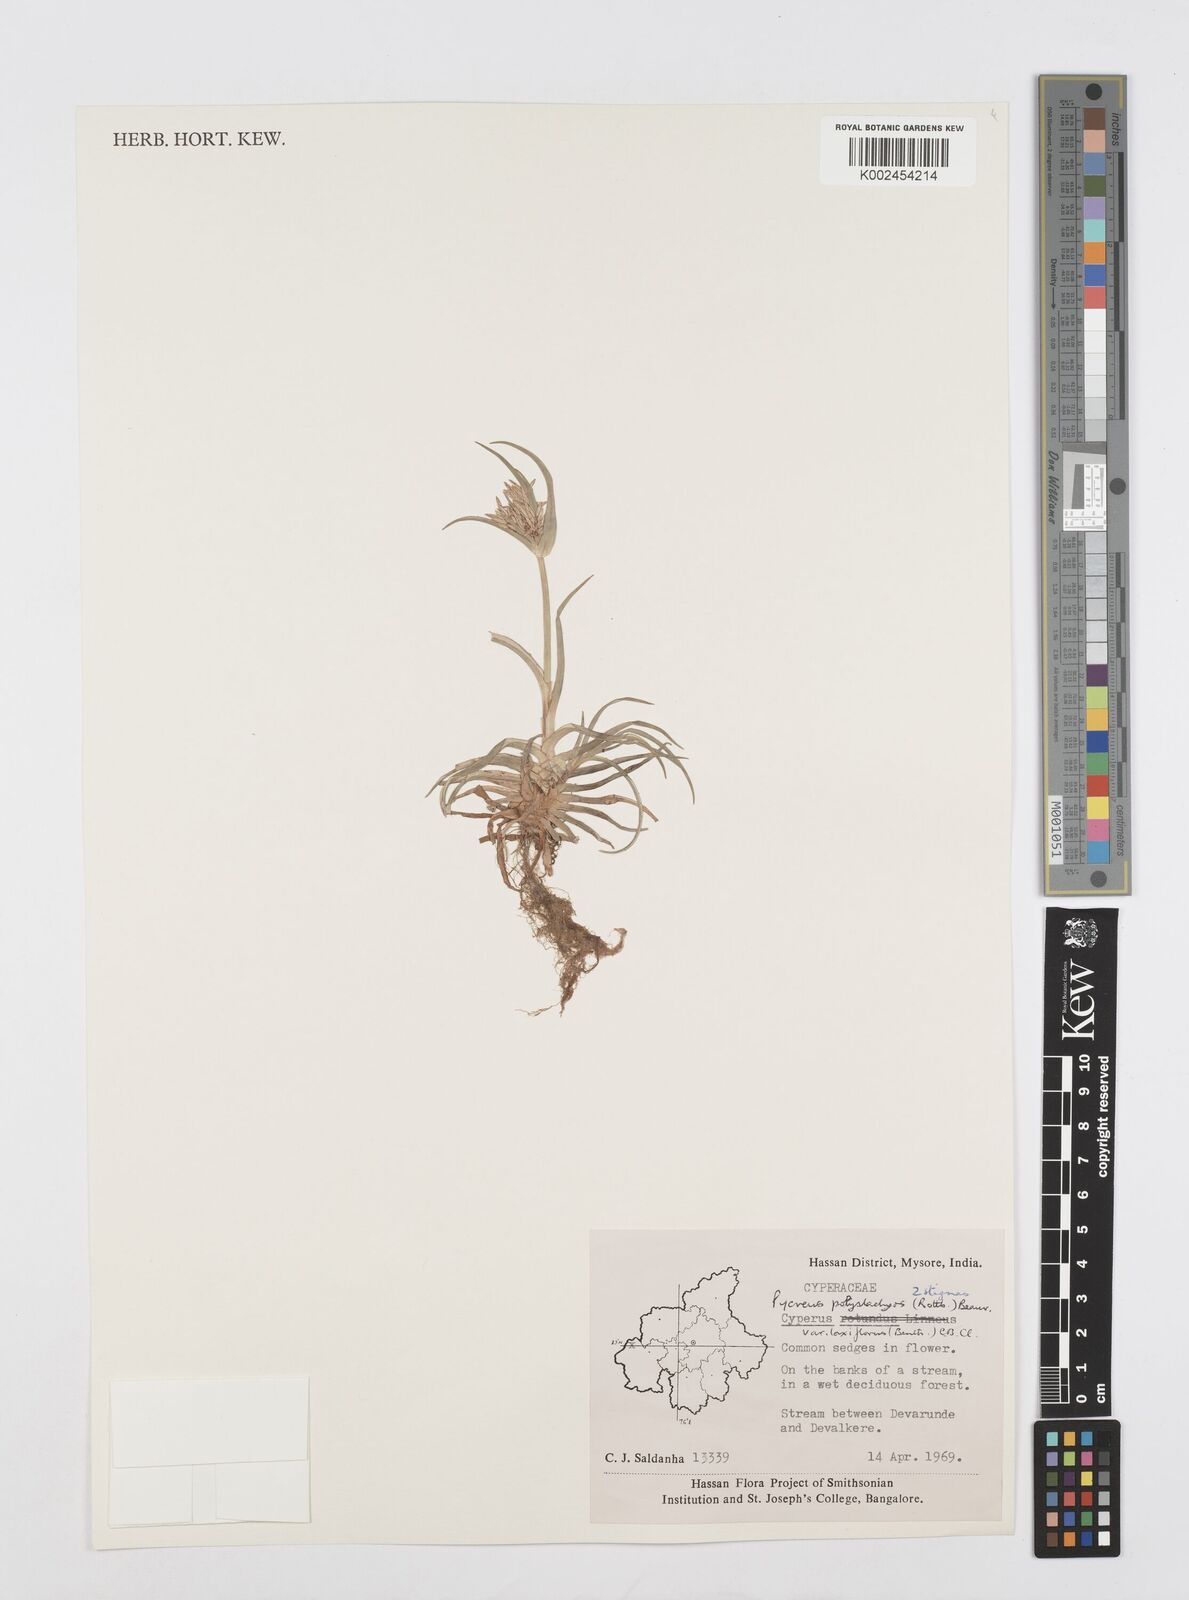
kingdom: Plantae
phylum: Tracheophyta
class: Liliopsida
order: Poales
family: Cyperaceae
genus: Cyperus
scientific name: Cyperus polystachyos
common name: Bunchy flat sedge
